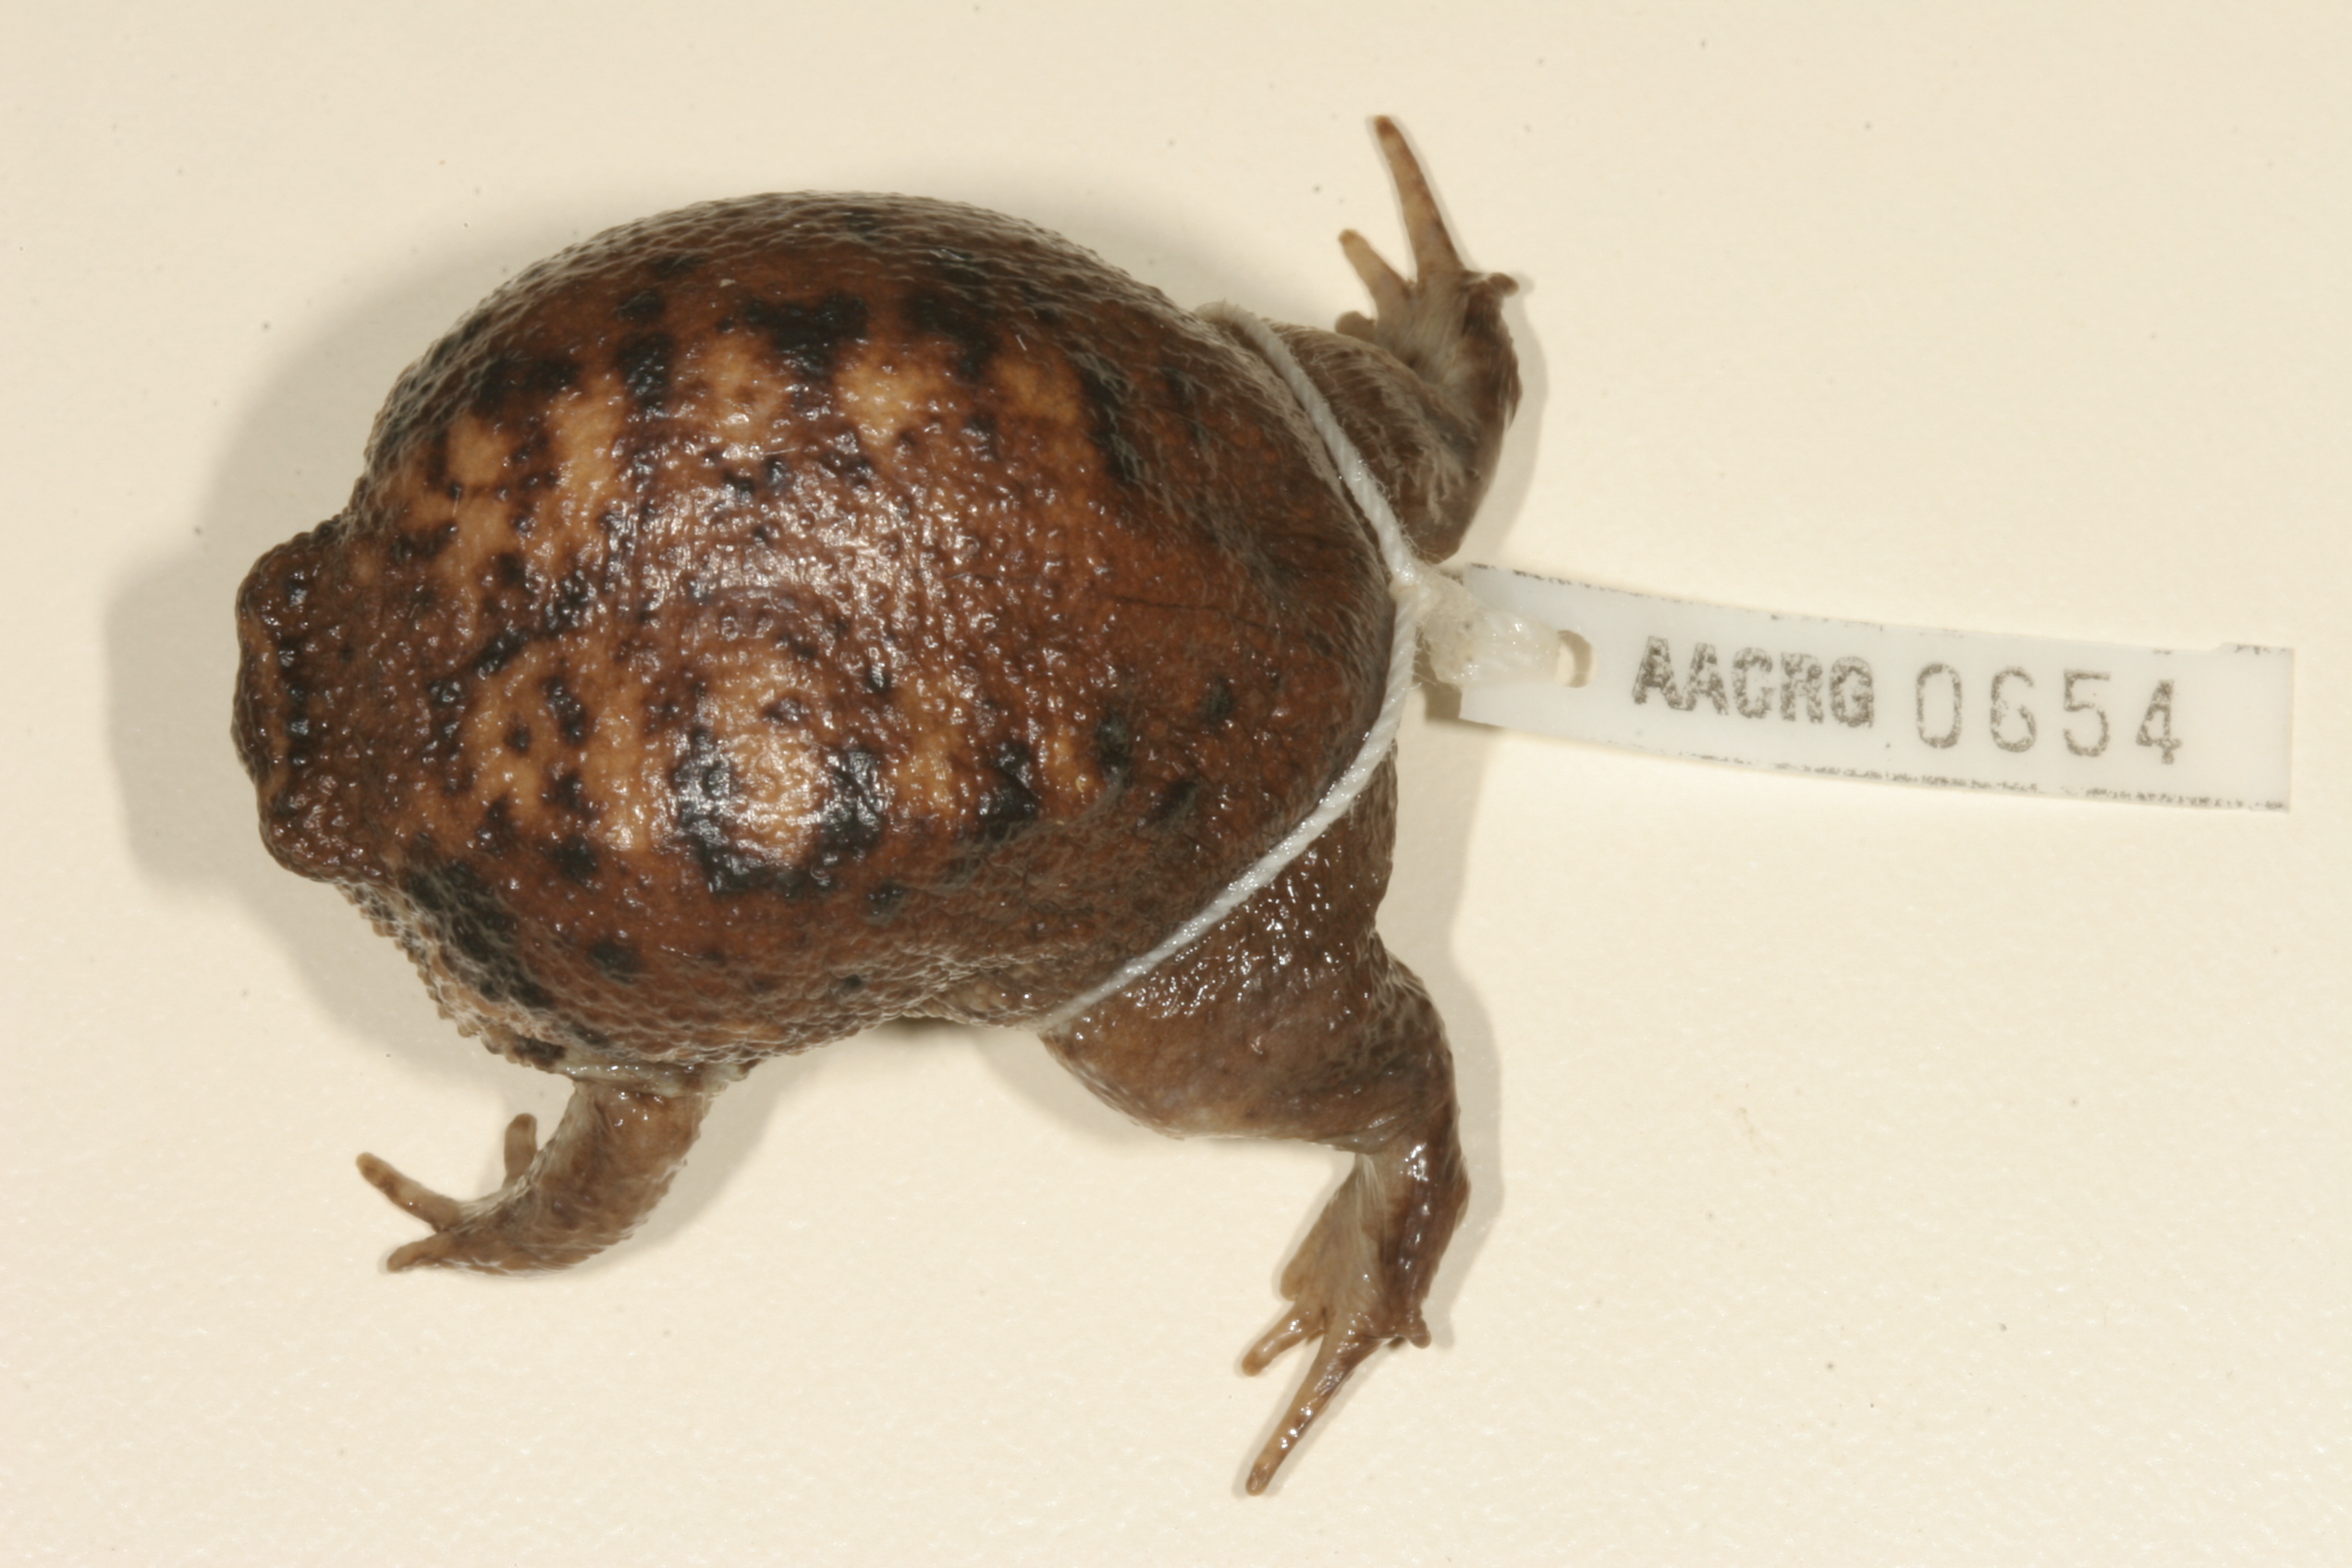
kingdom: Animalia
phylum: Chordata
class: Amphibia
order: Anura
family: Brevicipitidae
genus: Breviceps
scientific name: Breviceps gibbosus
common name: Cape rain frog
